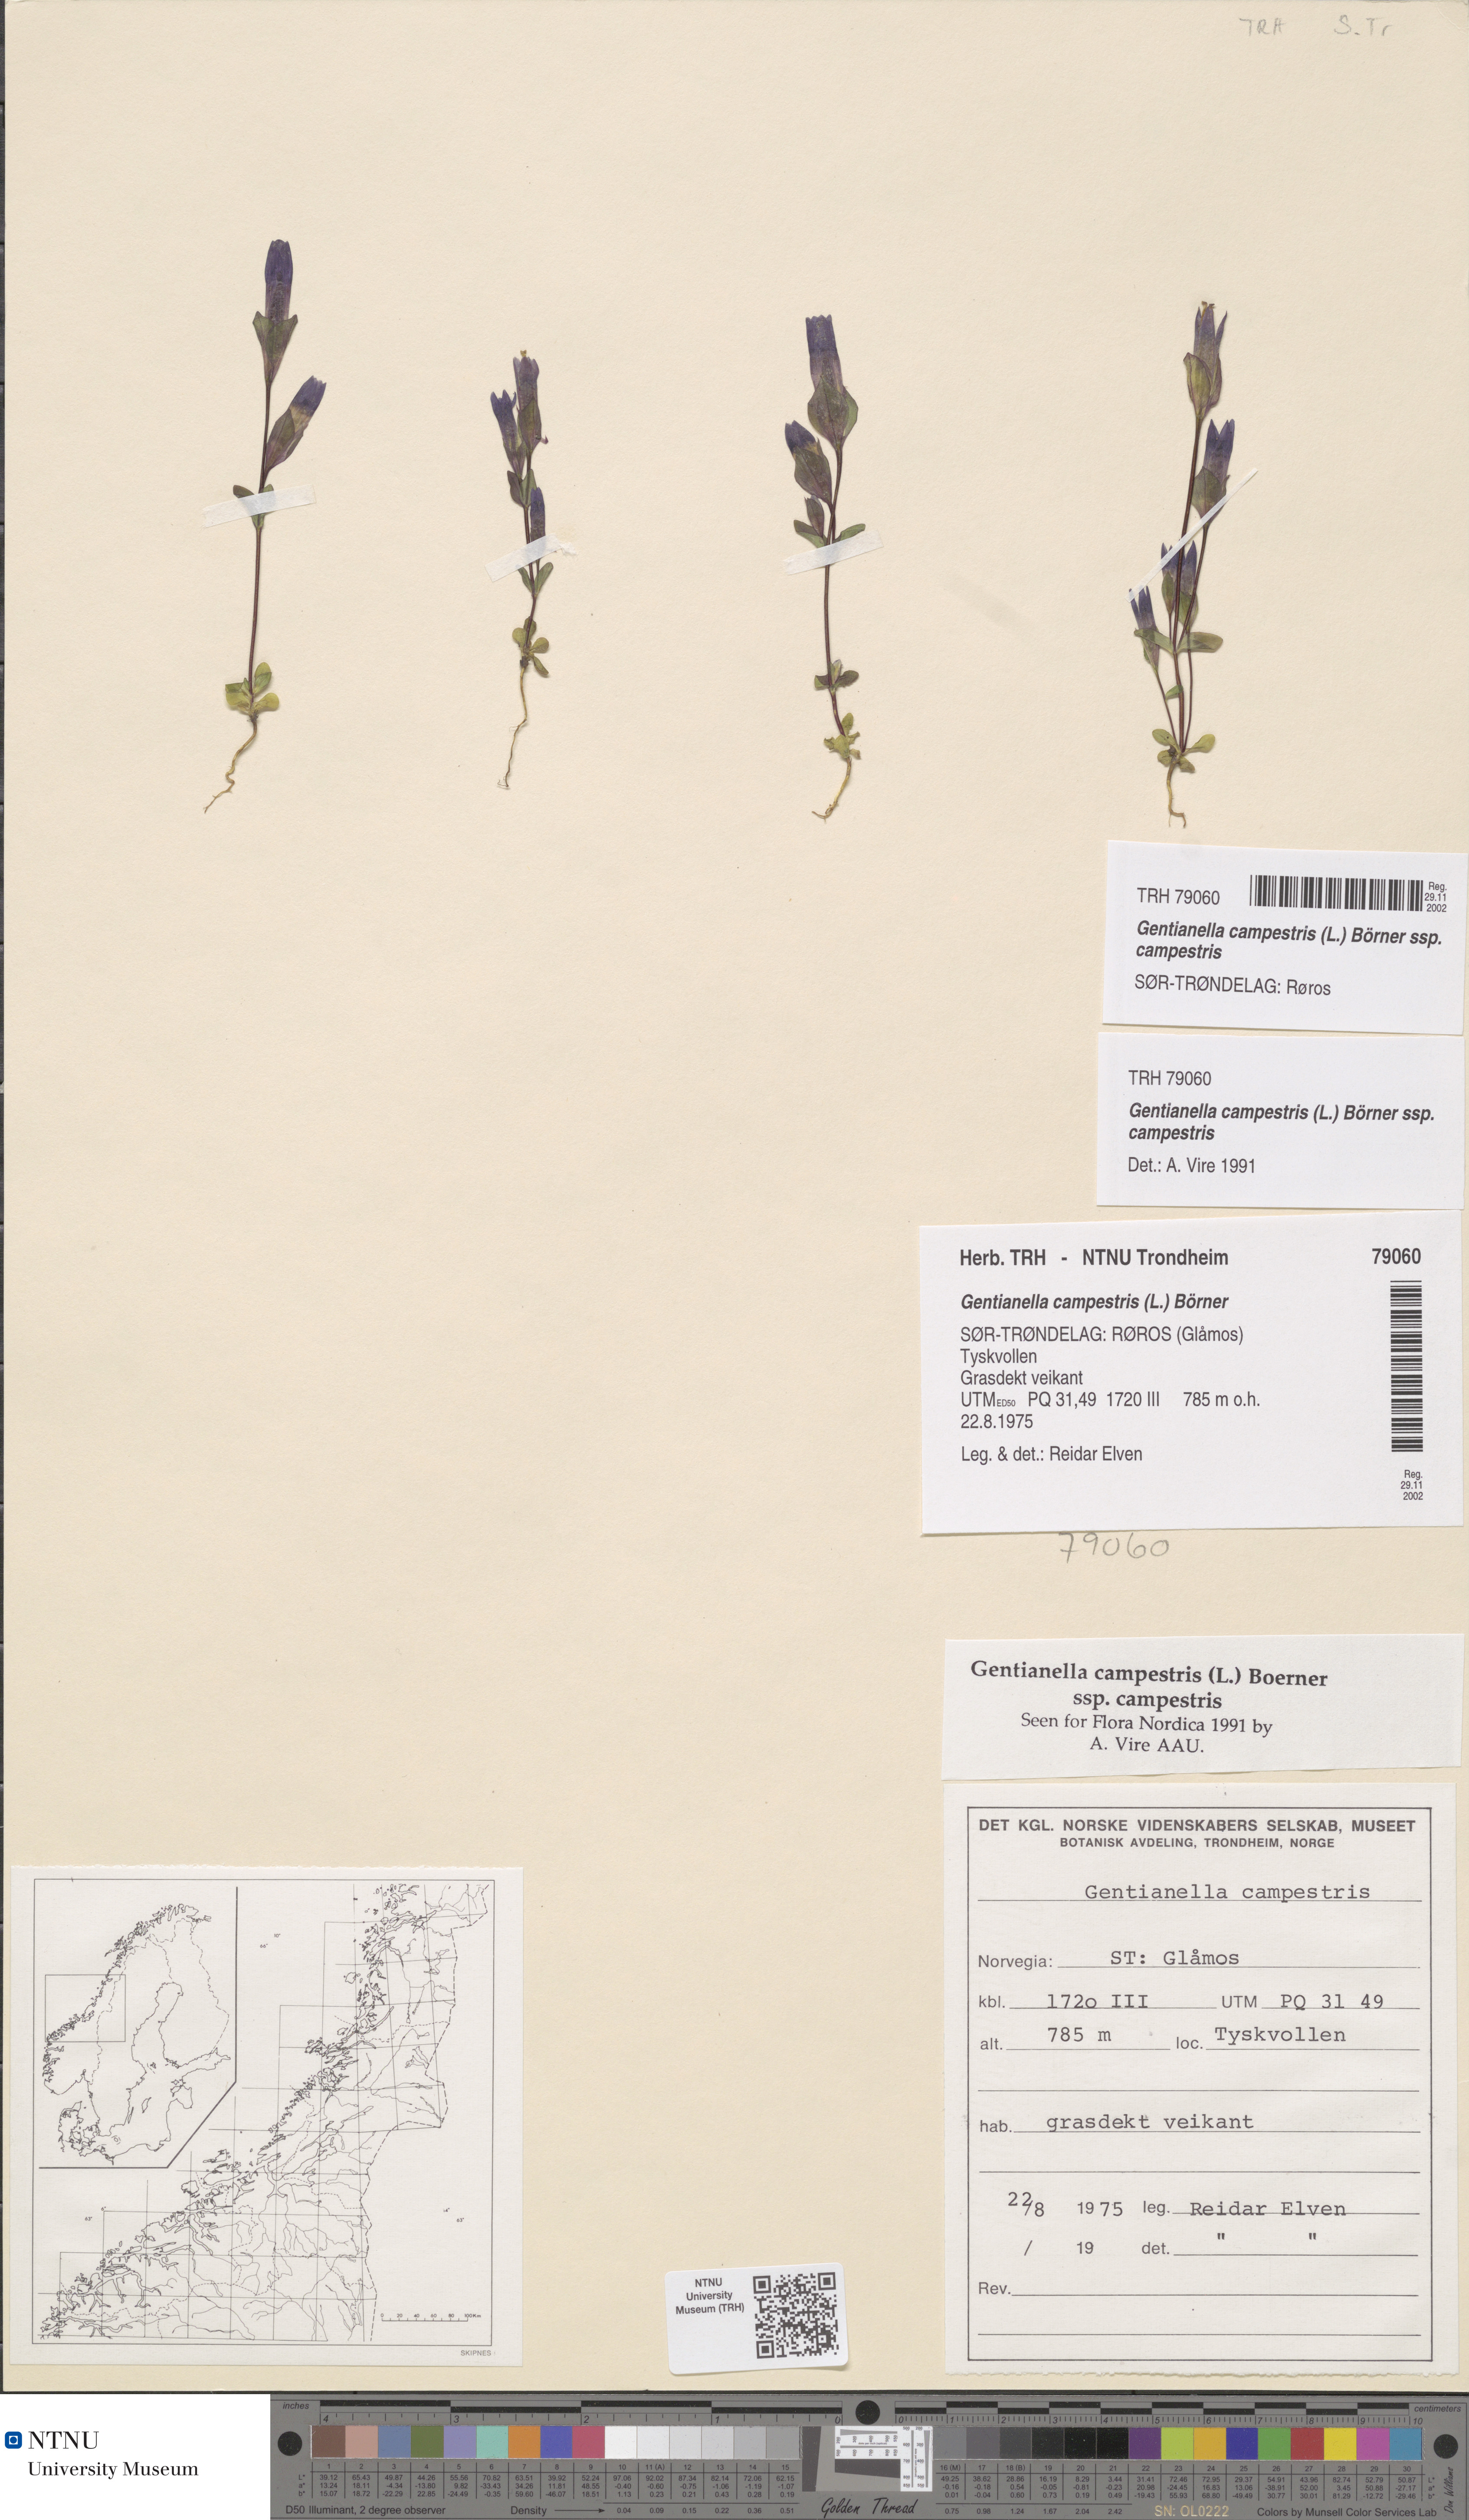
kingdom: Plantae
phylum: Tracheophyta
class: Magnoliopsida
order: Gentianales
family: Gentianaceae
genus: Gentianella
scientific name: Gentianella campestris
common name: Field gentian
